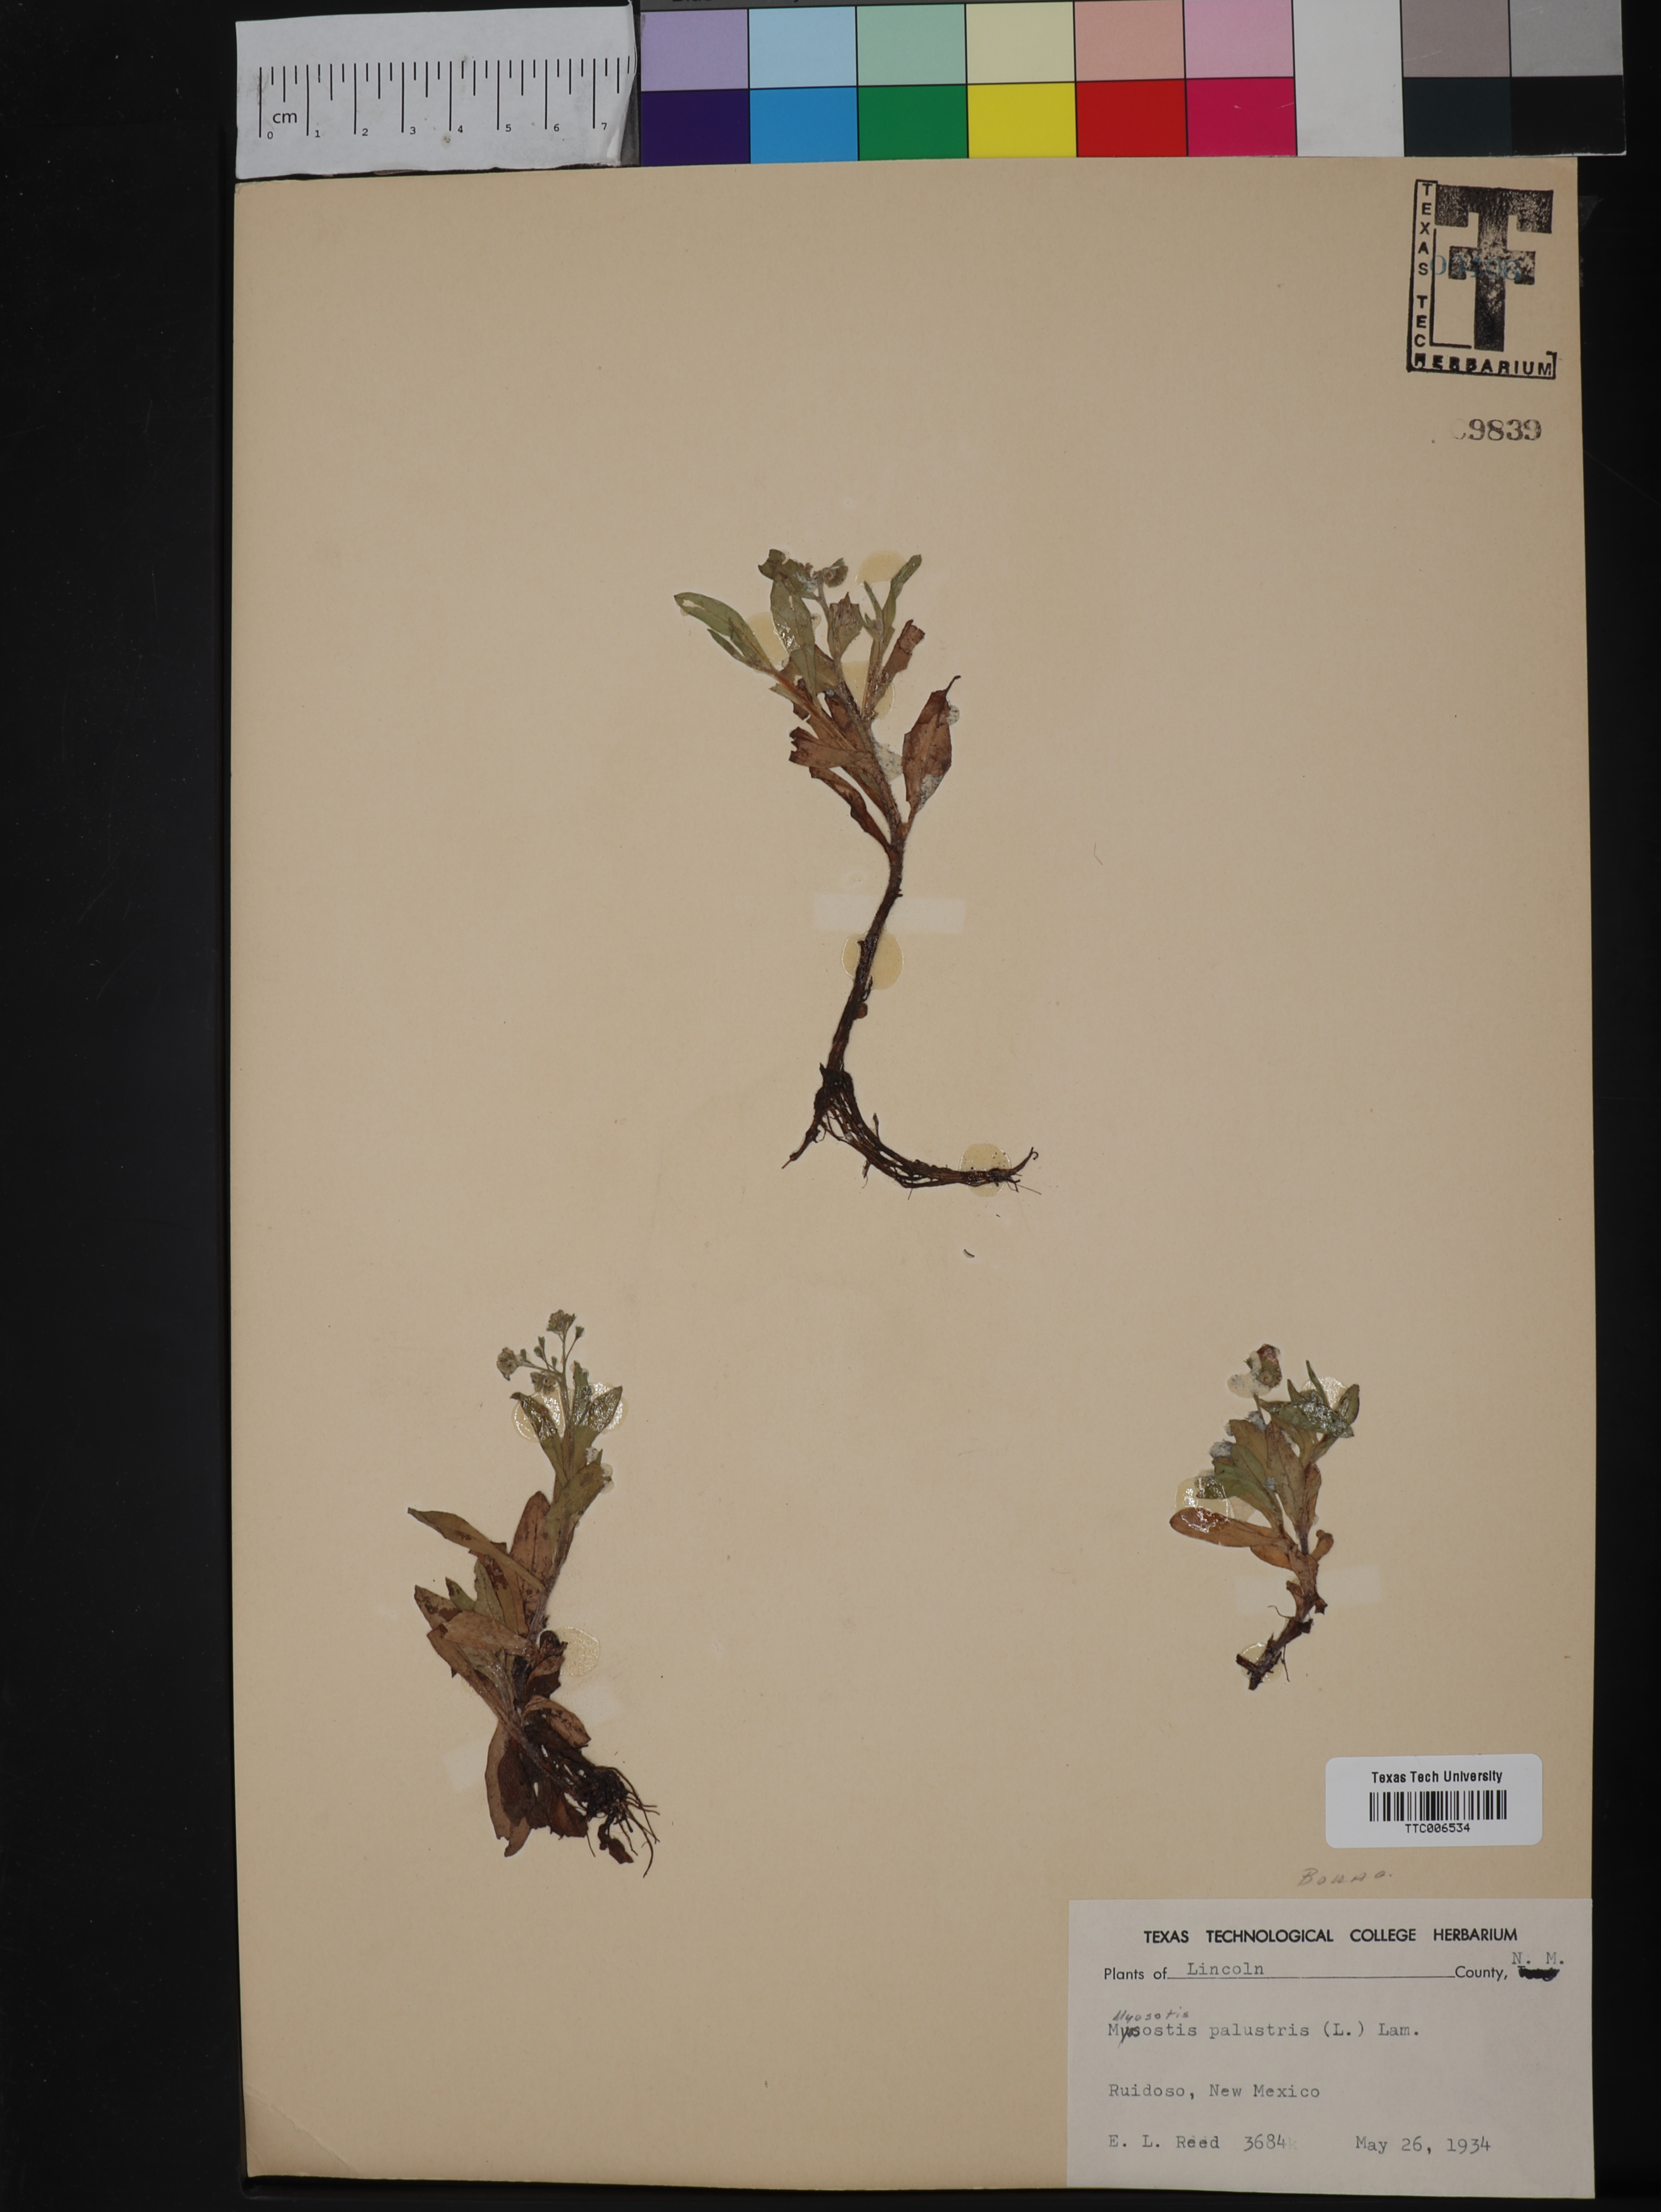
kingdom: Plantae
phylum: Tracheophyta
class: Magnoliopsida
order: Boraginales
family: Boraginaceae
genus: Myosotis
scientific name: Myosotis scorpioides
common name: Water forget-me-not
